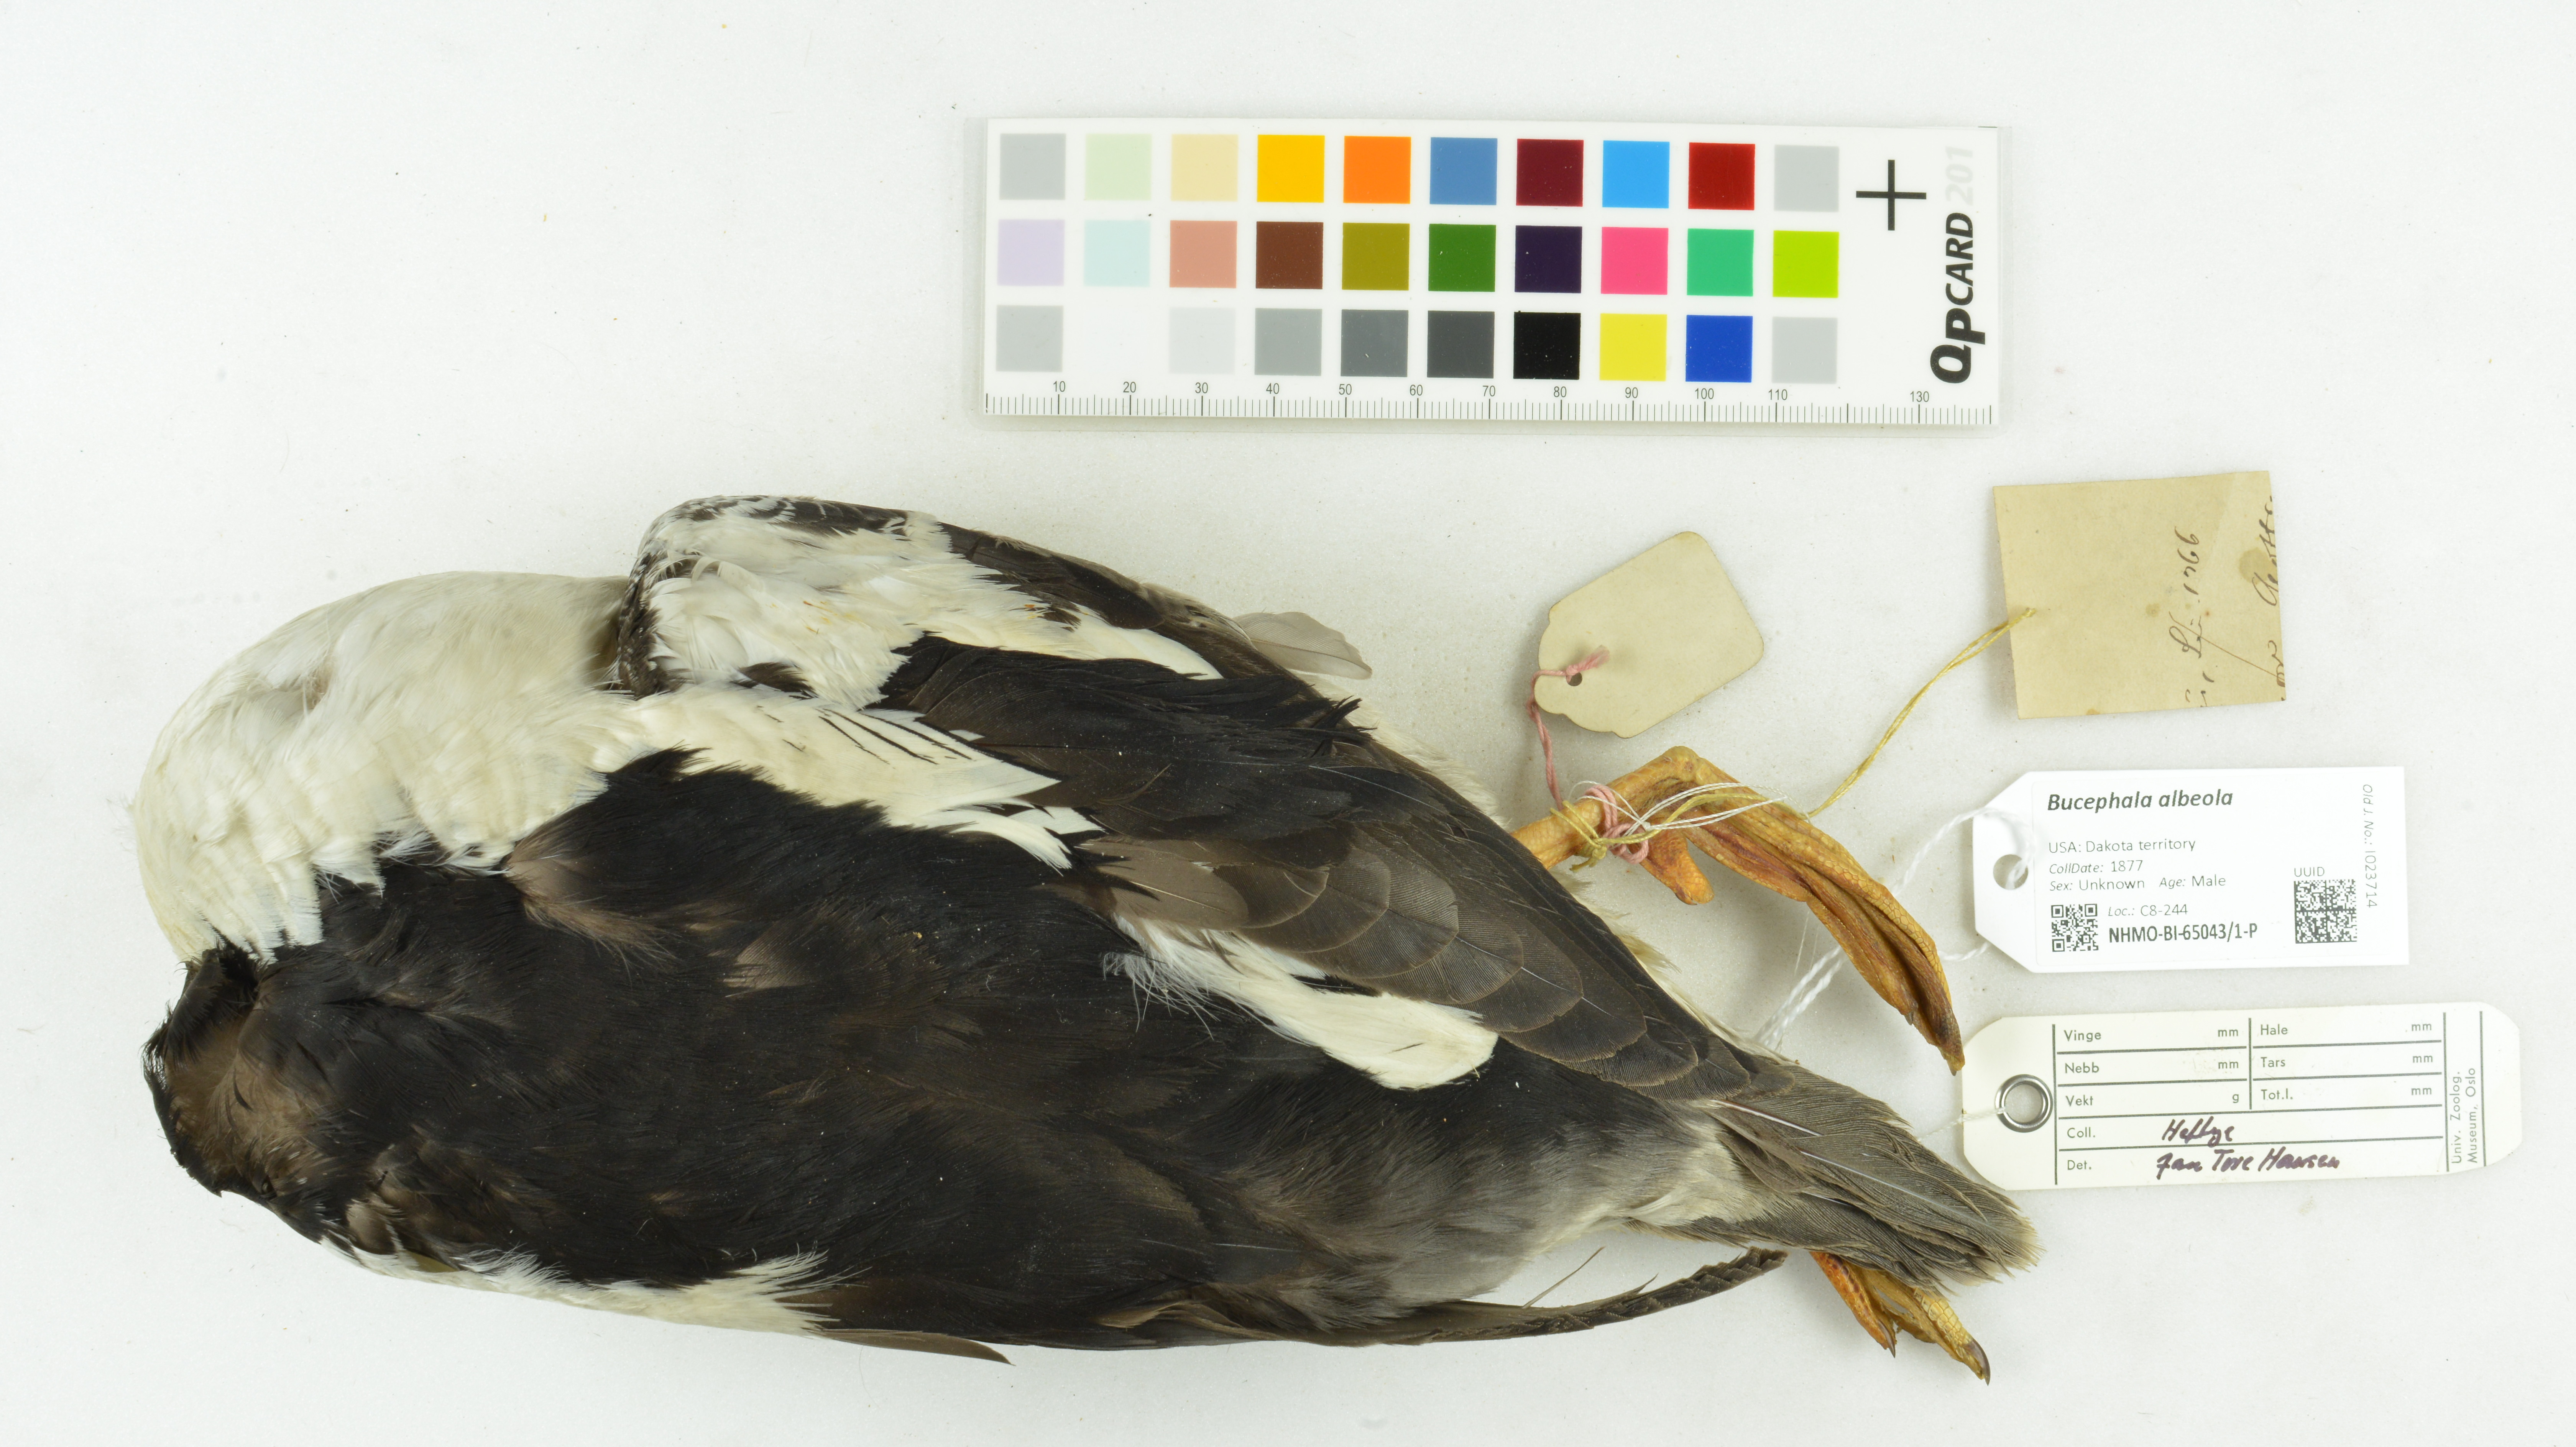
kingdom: Animalia
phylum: Chordata
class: Aves
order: Anseriformes
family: Anatidae
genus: Bucephala
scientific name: Bucephala albeola
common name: Bufflehead
